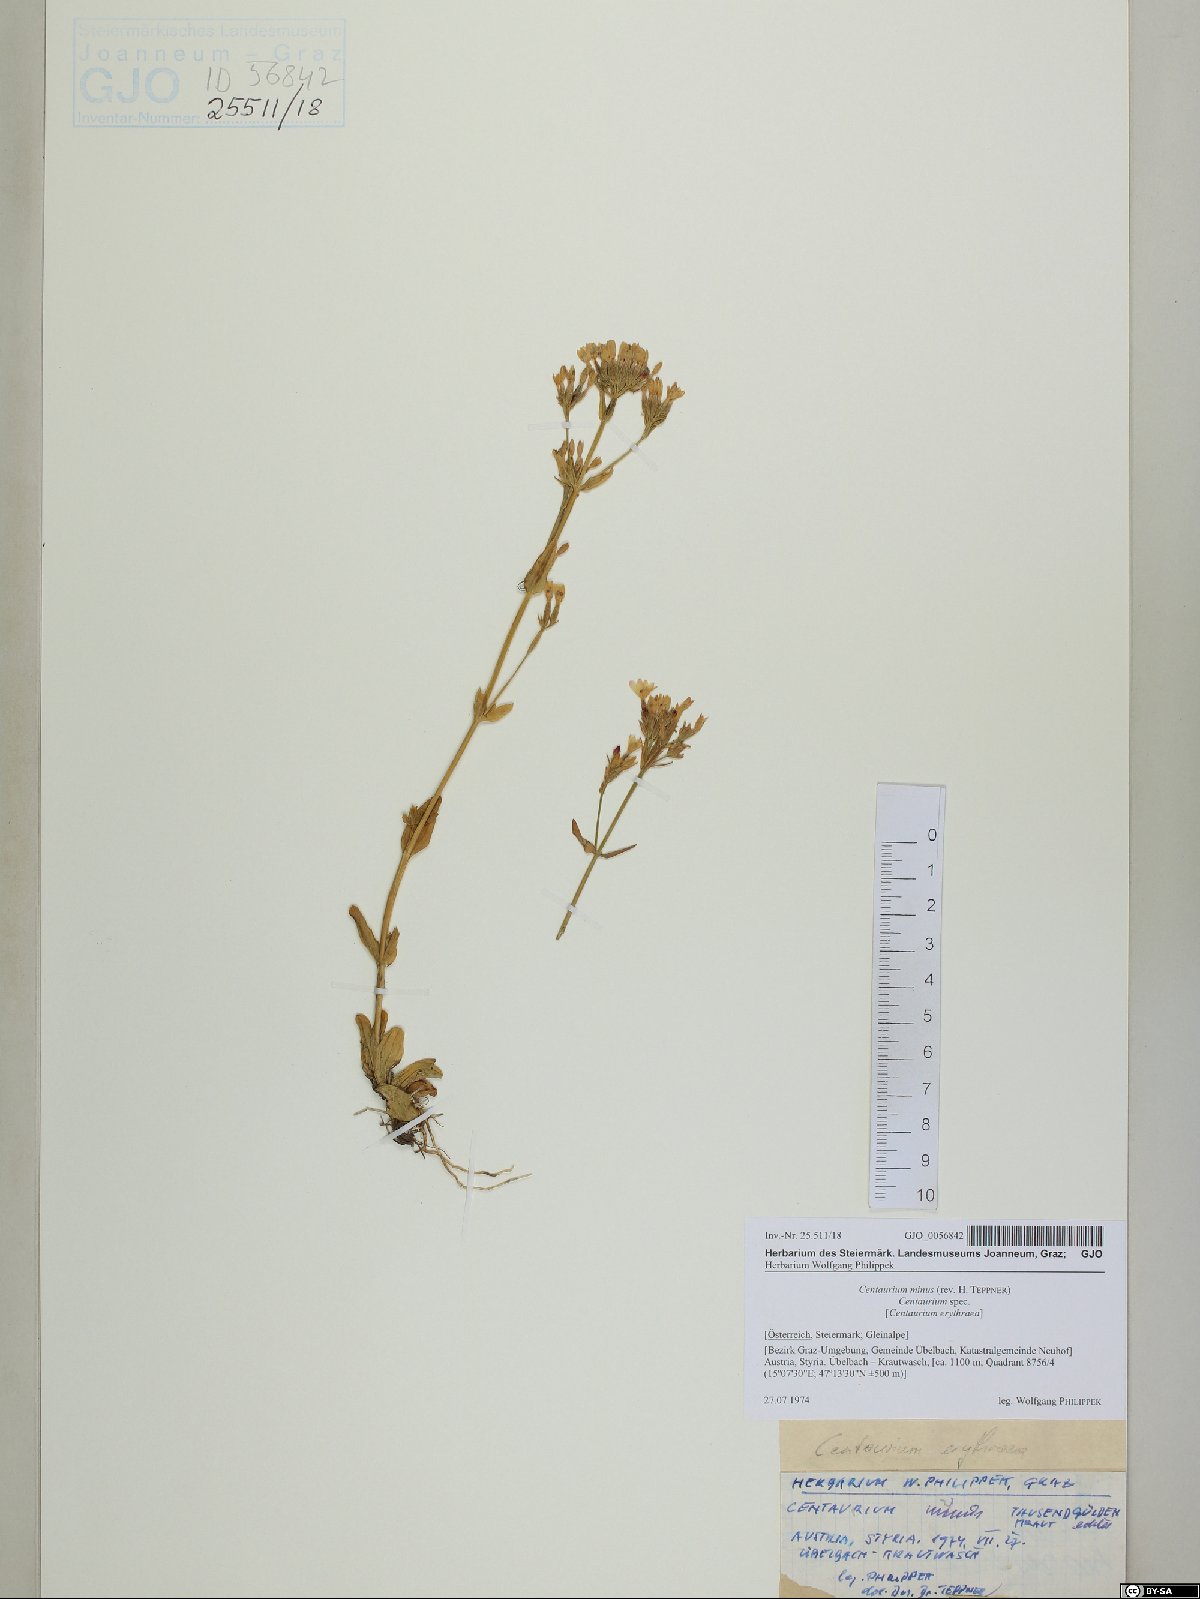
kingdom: Plantae
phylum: Tracheophyta
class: Magnoliopsida
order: Gentianales
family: Gentianaceae
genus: Centaurium
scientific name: Centaurium erythraea
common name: Common centaury
